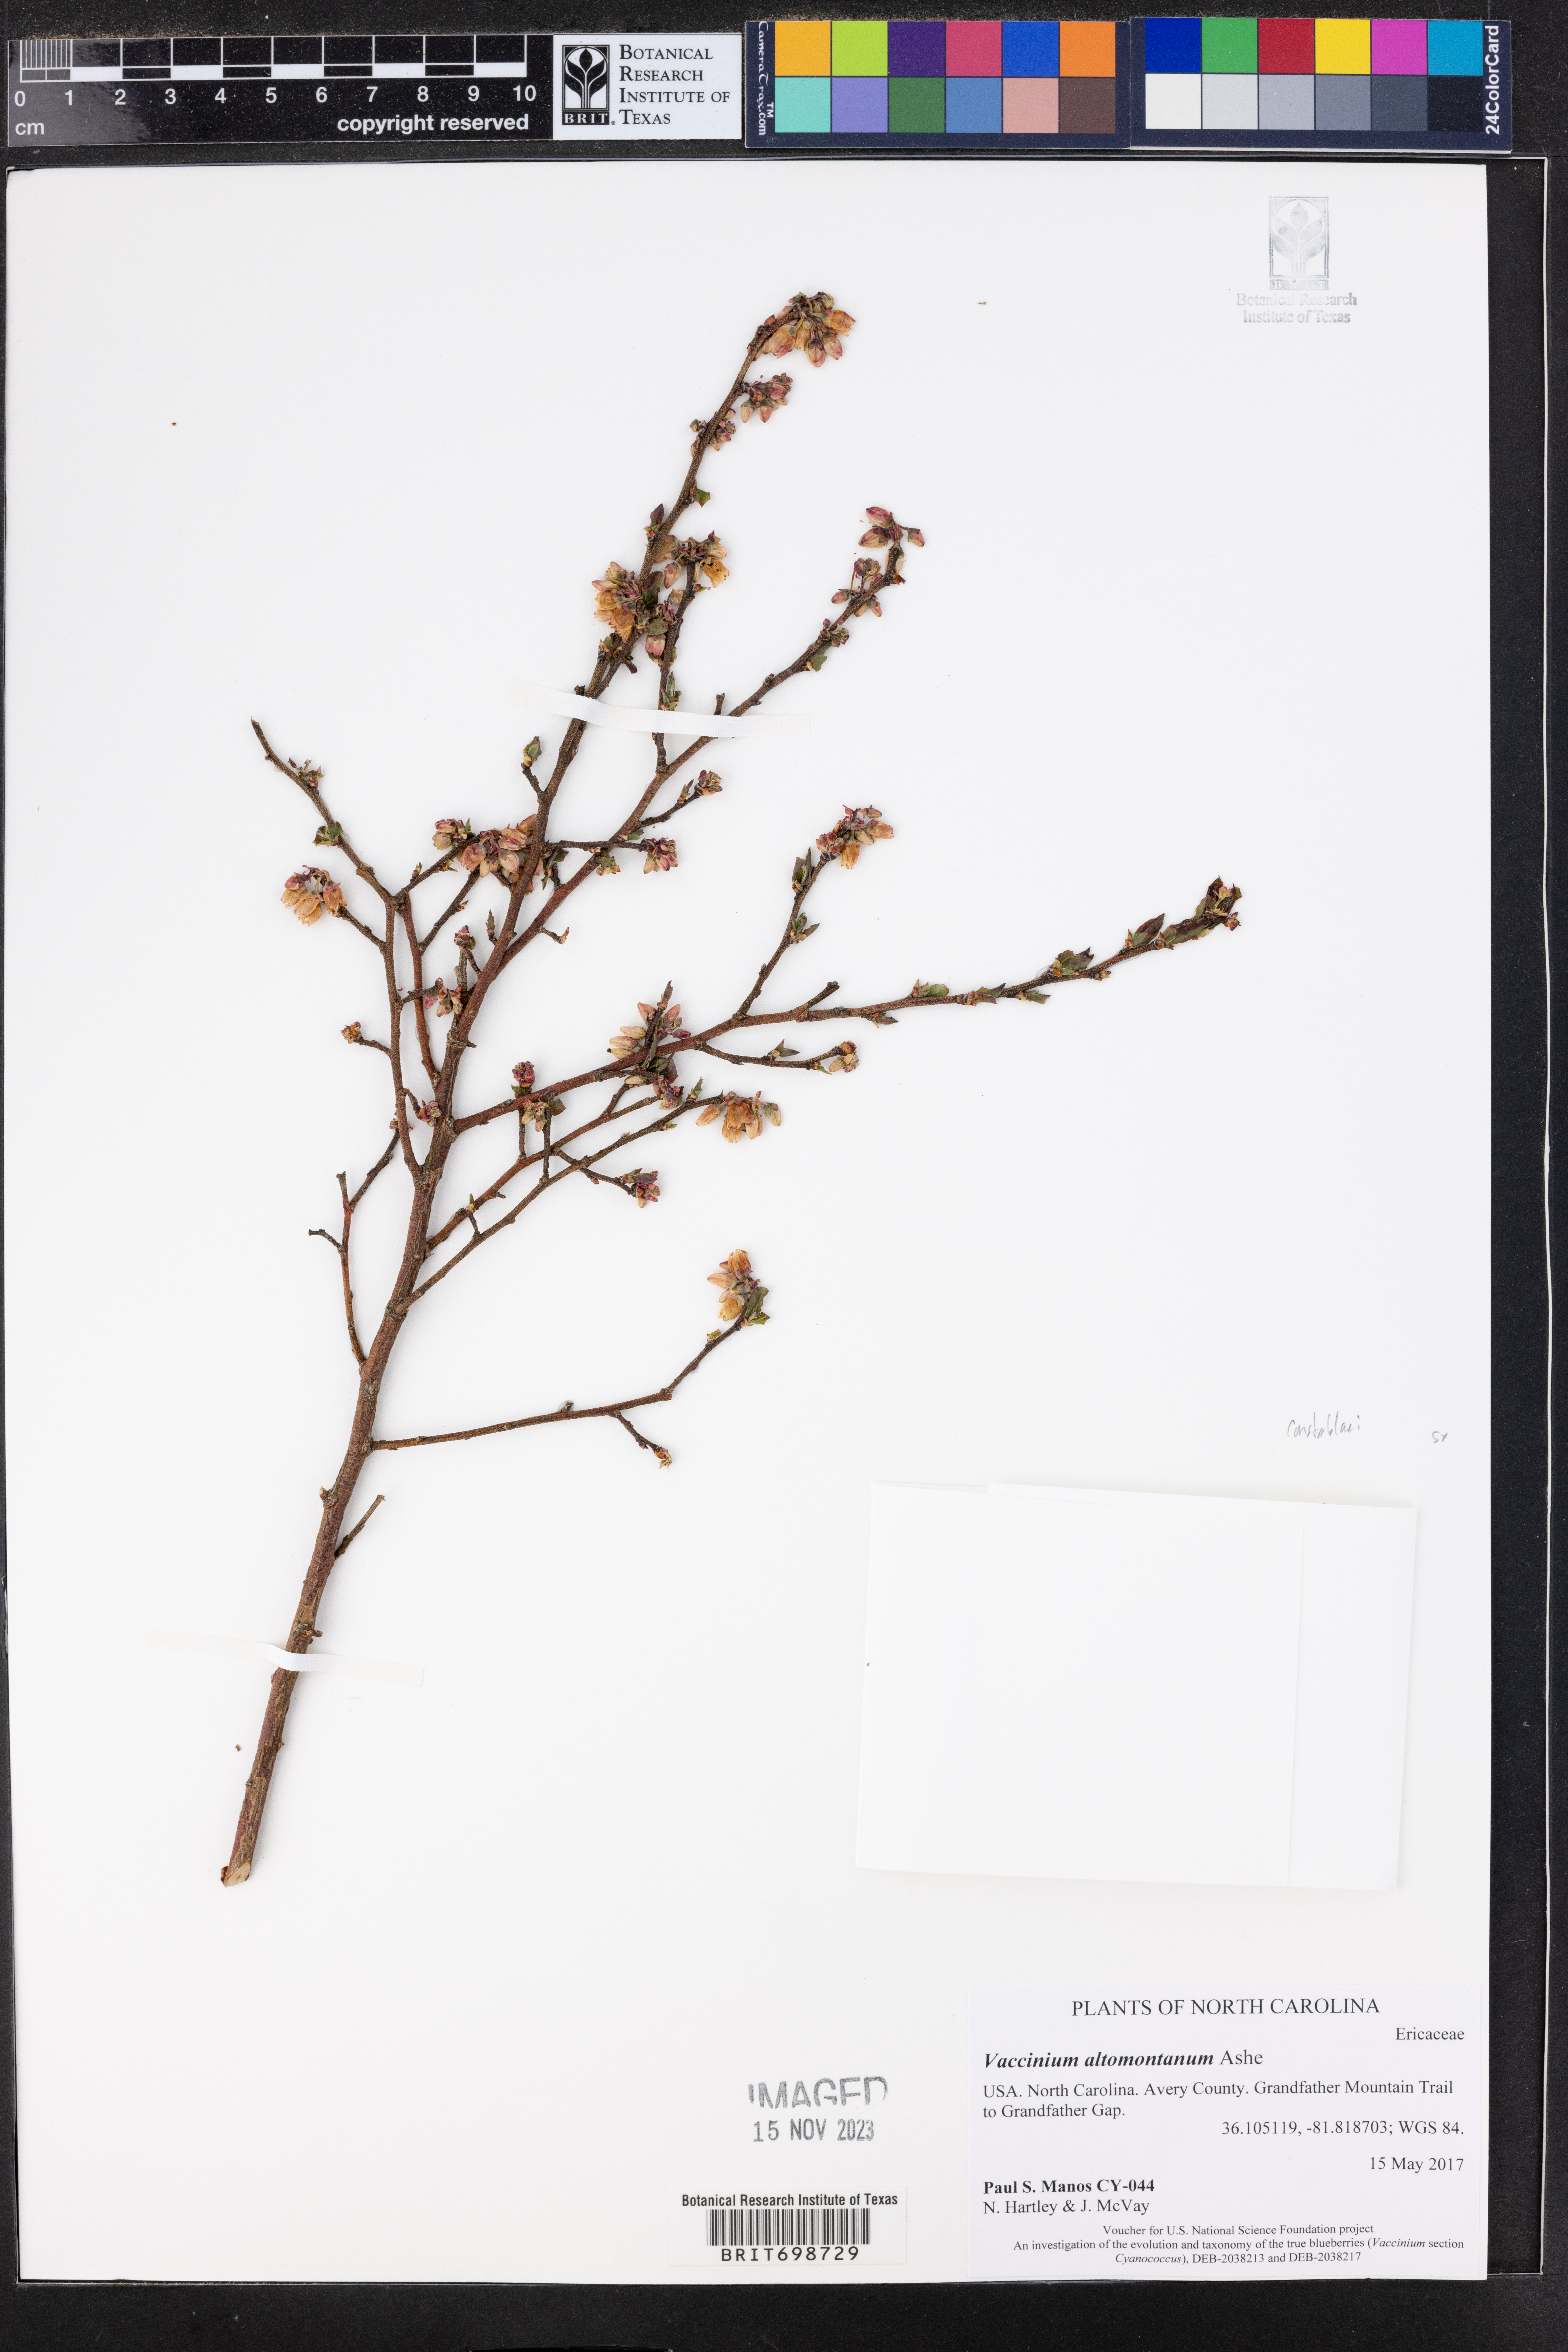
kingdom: Plantae
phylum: Tracheophyta
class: Magnoliopsida
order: Ericales
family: Ericaceae
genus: Vaccinium
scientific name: Vaccinium pallidum
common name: Blue ridge blueberry
